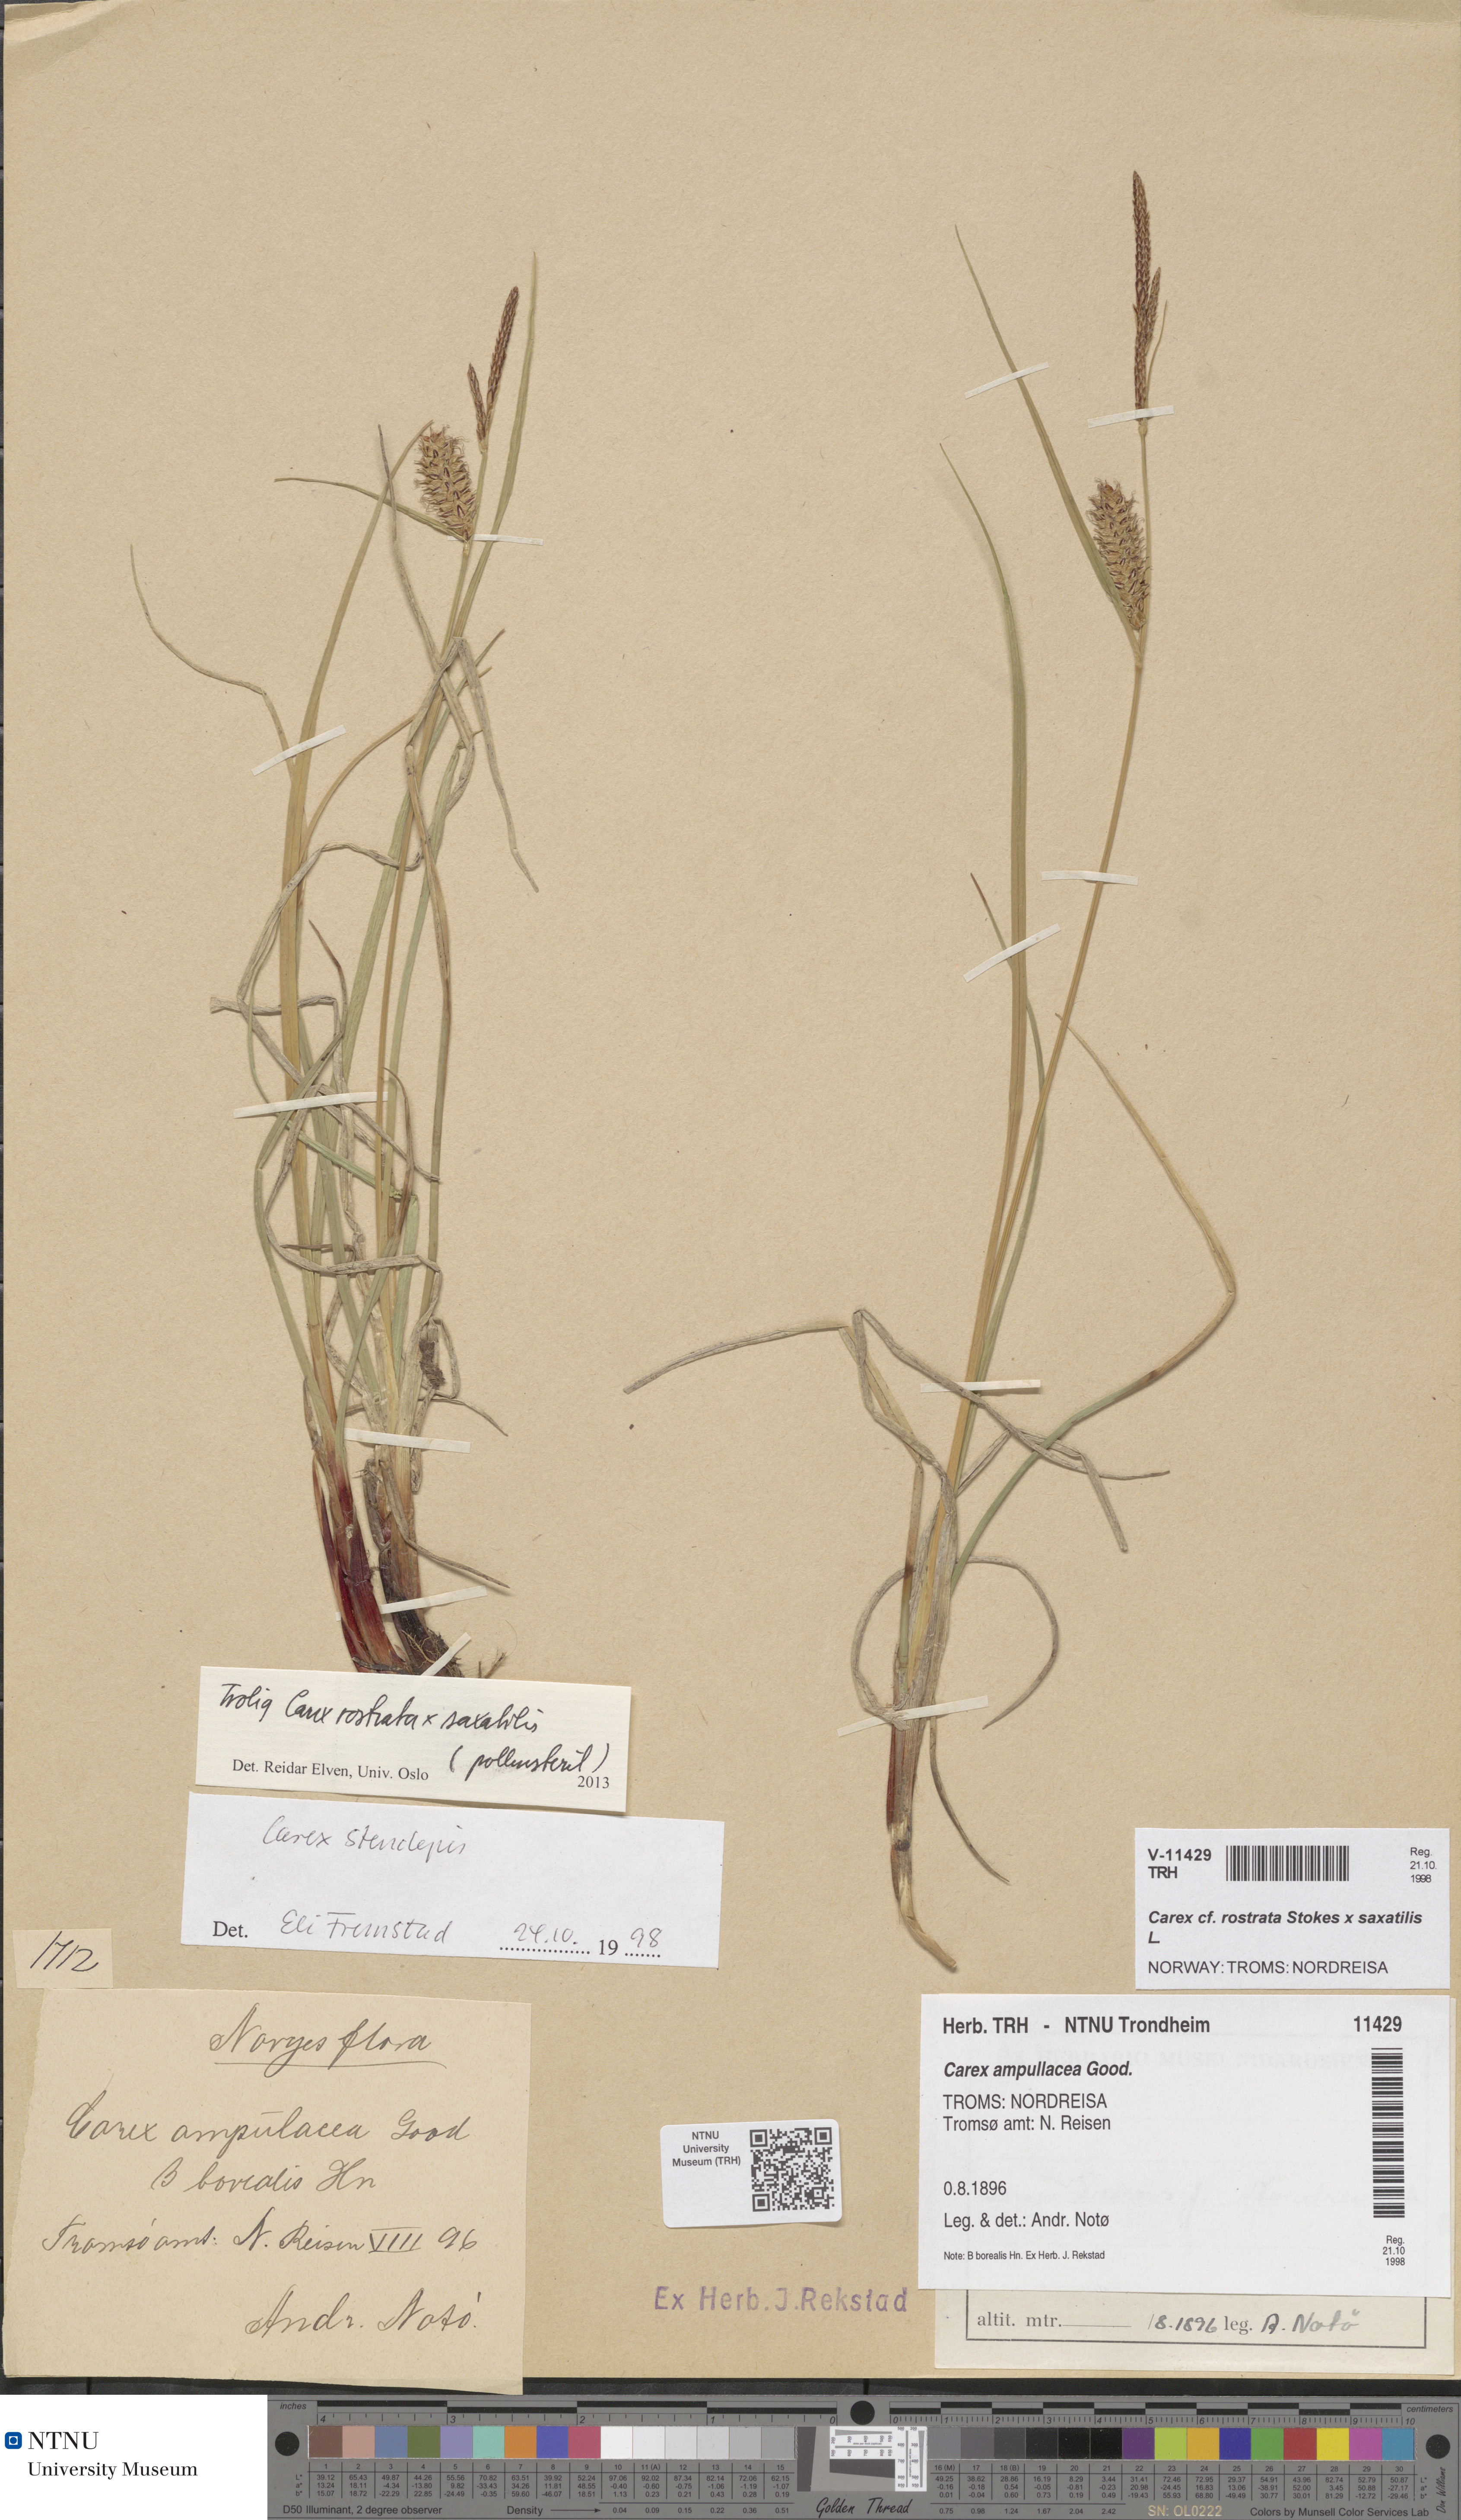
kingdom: Plantae
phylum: Tracheophyta
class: Liliopsida
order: Poales
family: Cyperaceae
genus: Carex
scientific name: Carex grahamii
